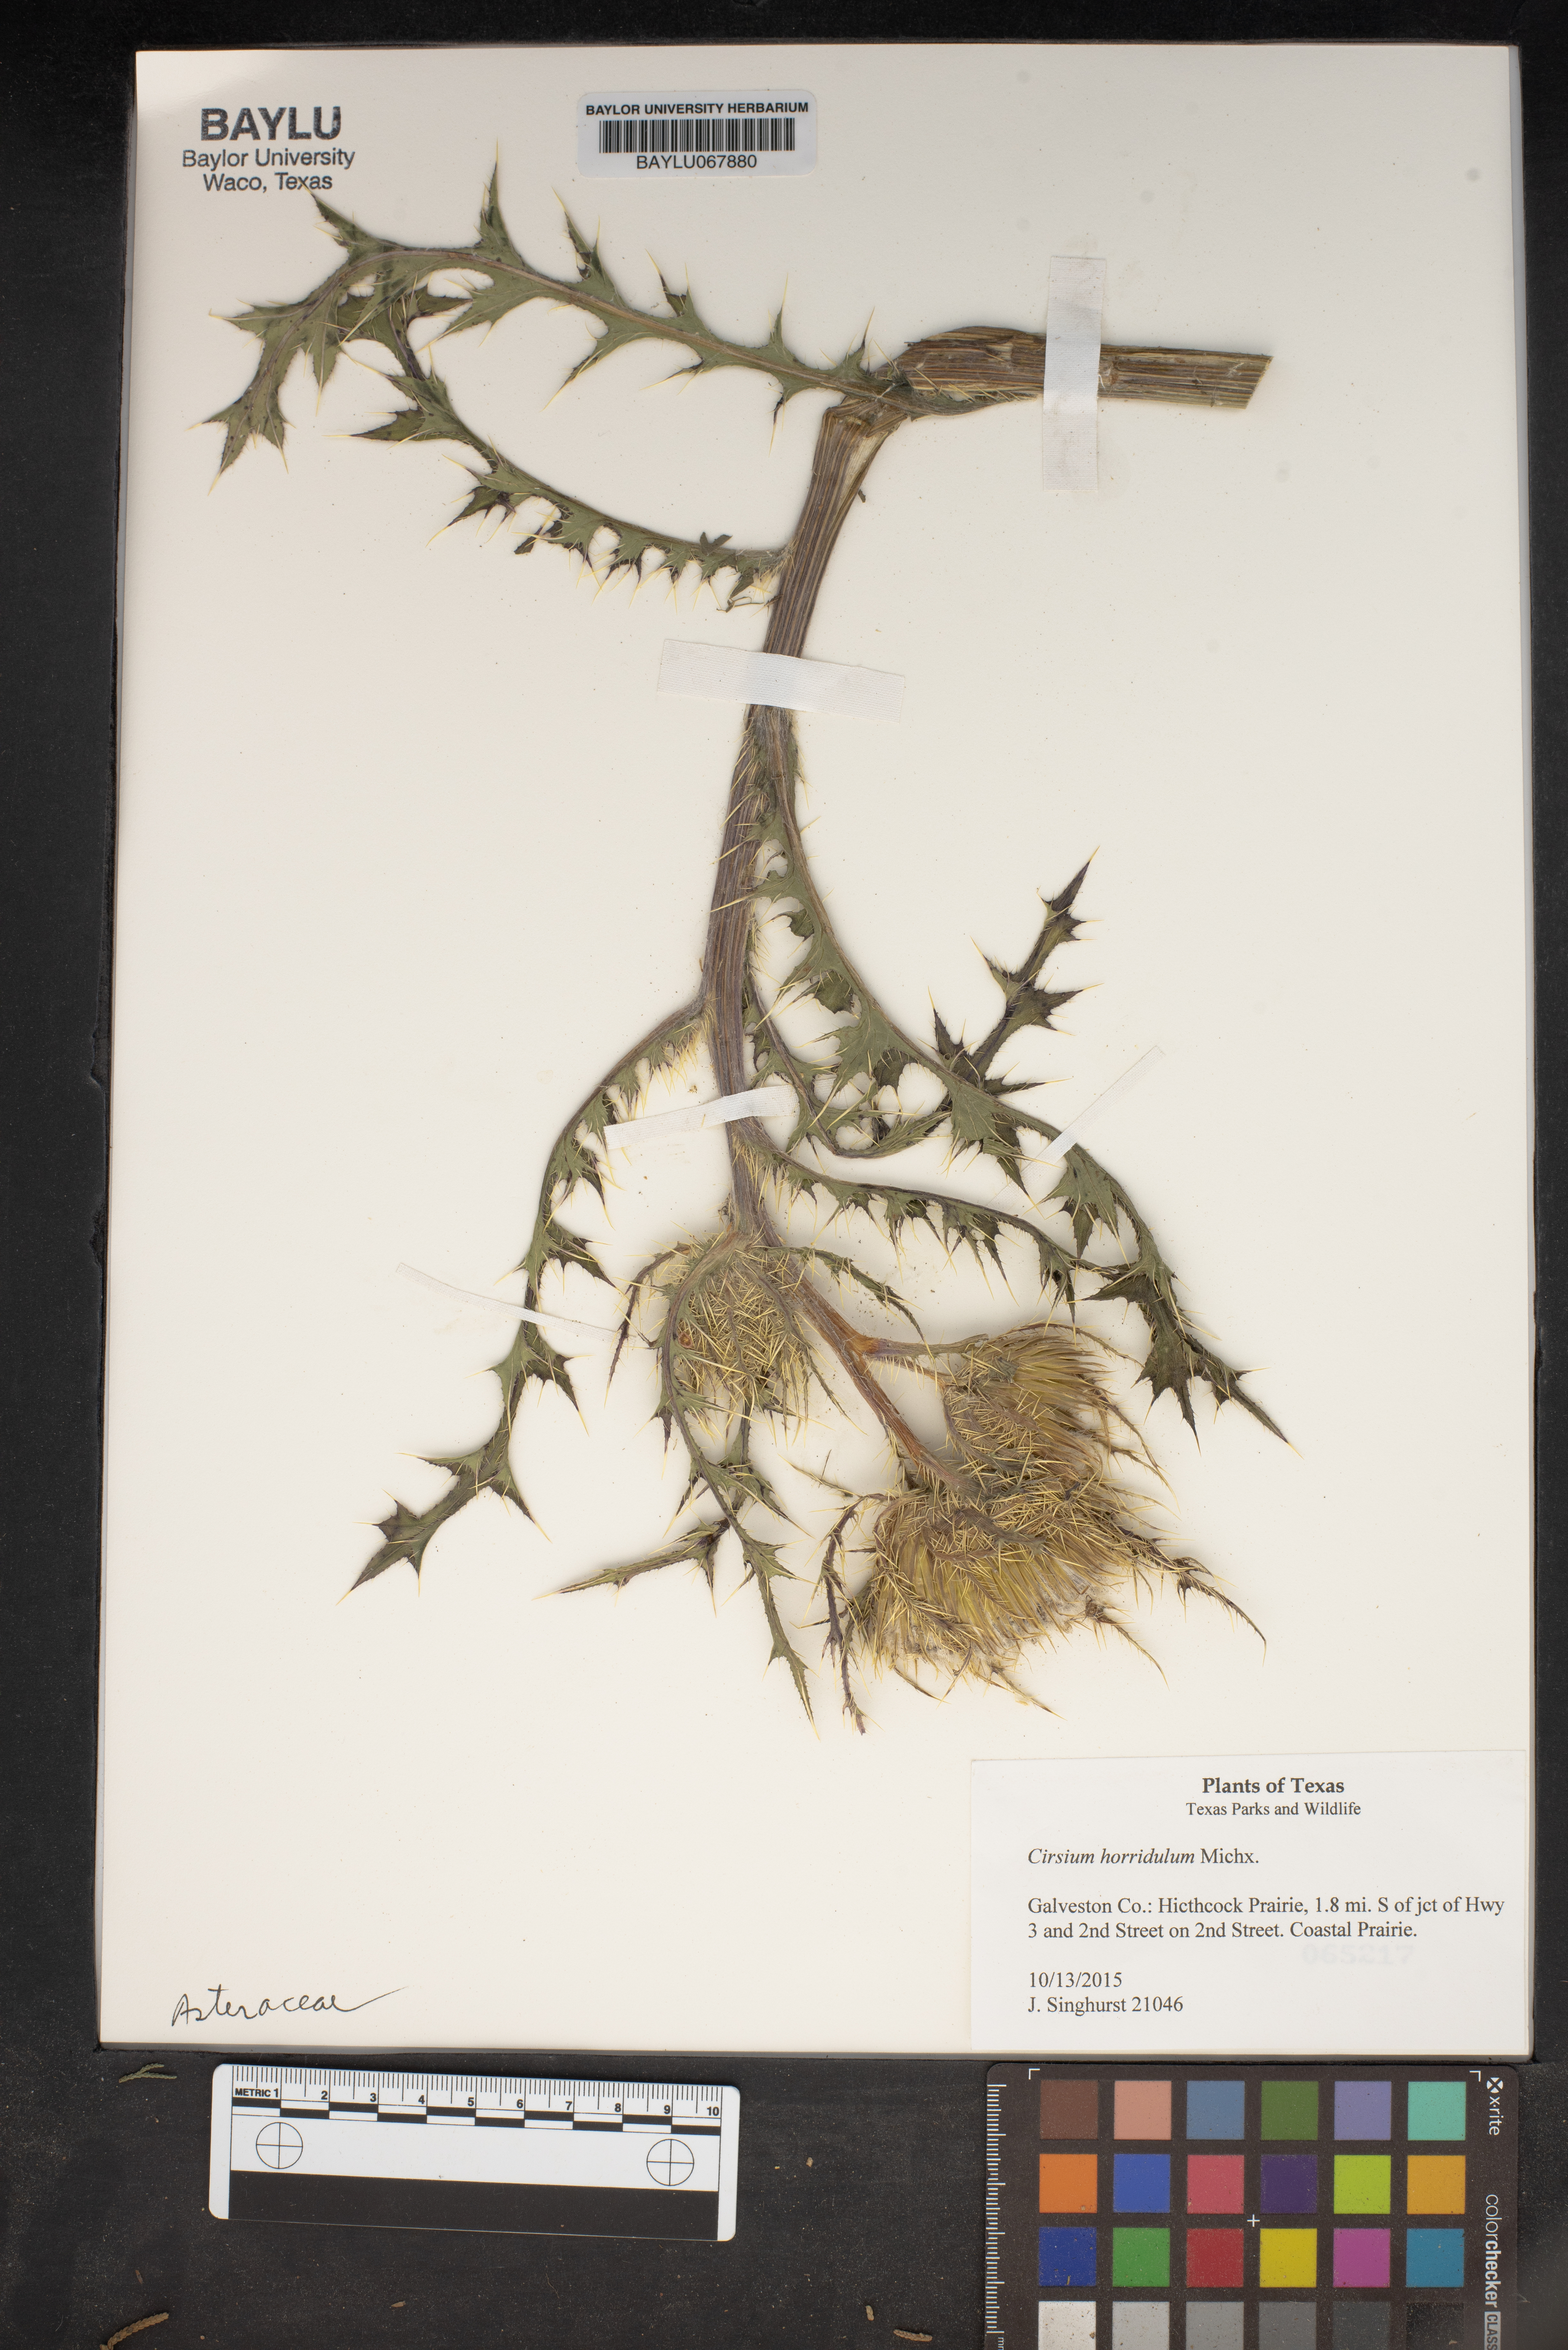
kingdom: Plantae
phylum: Tracheophyta
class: Magnoliopsida
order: Asterales
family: Asteraceae
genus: Cirsium
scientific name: Cirsium horridulum
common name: Bristly thistle
